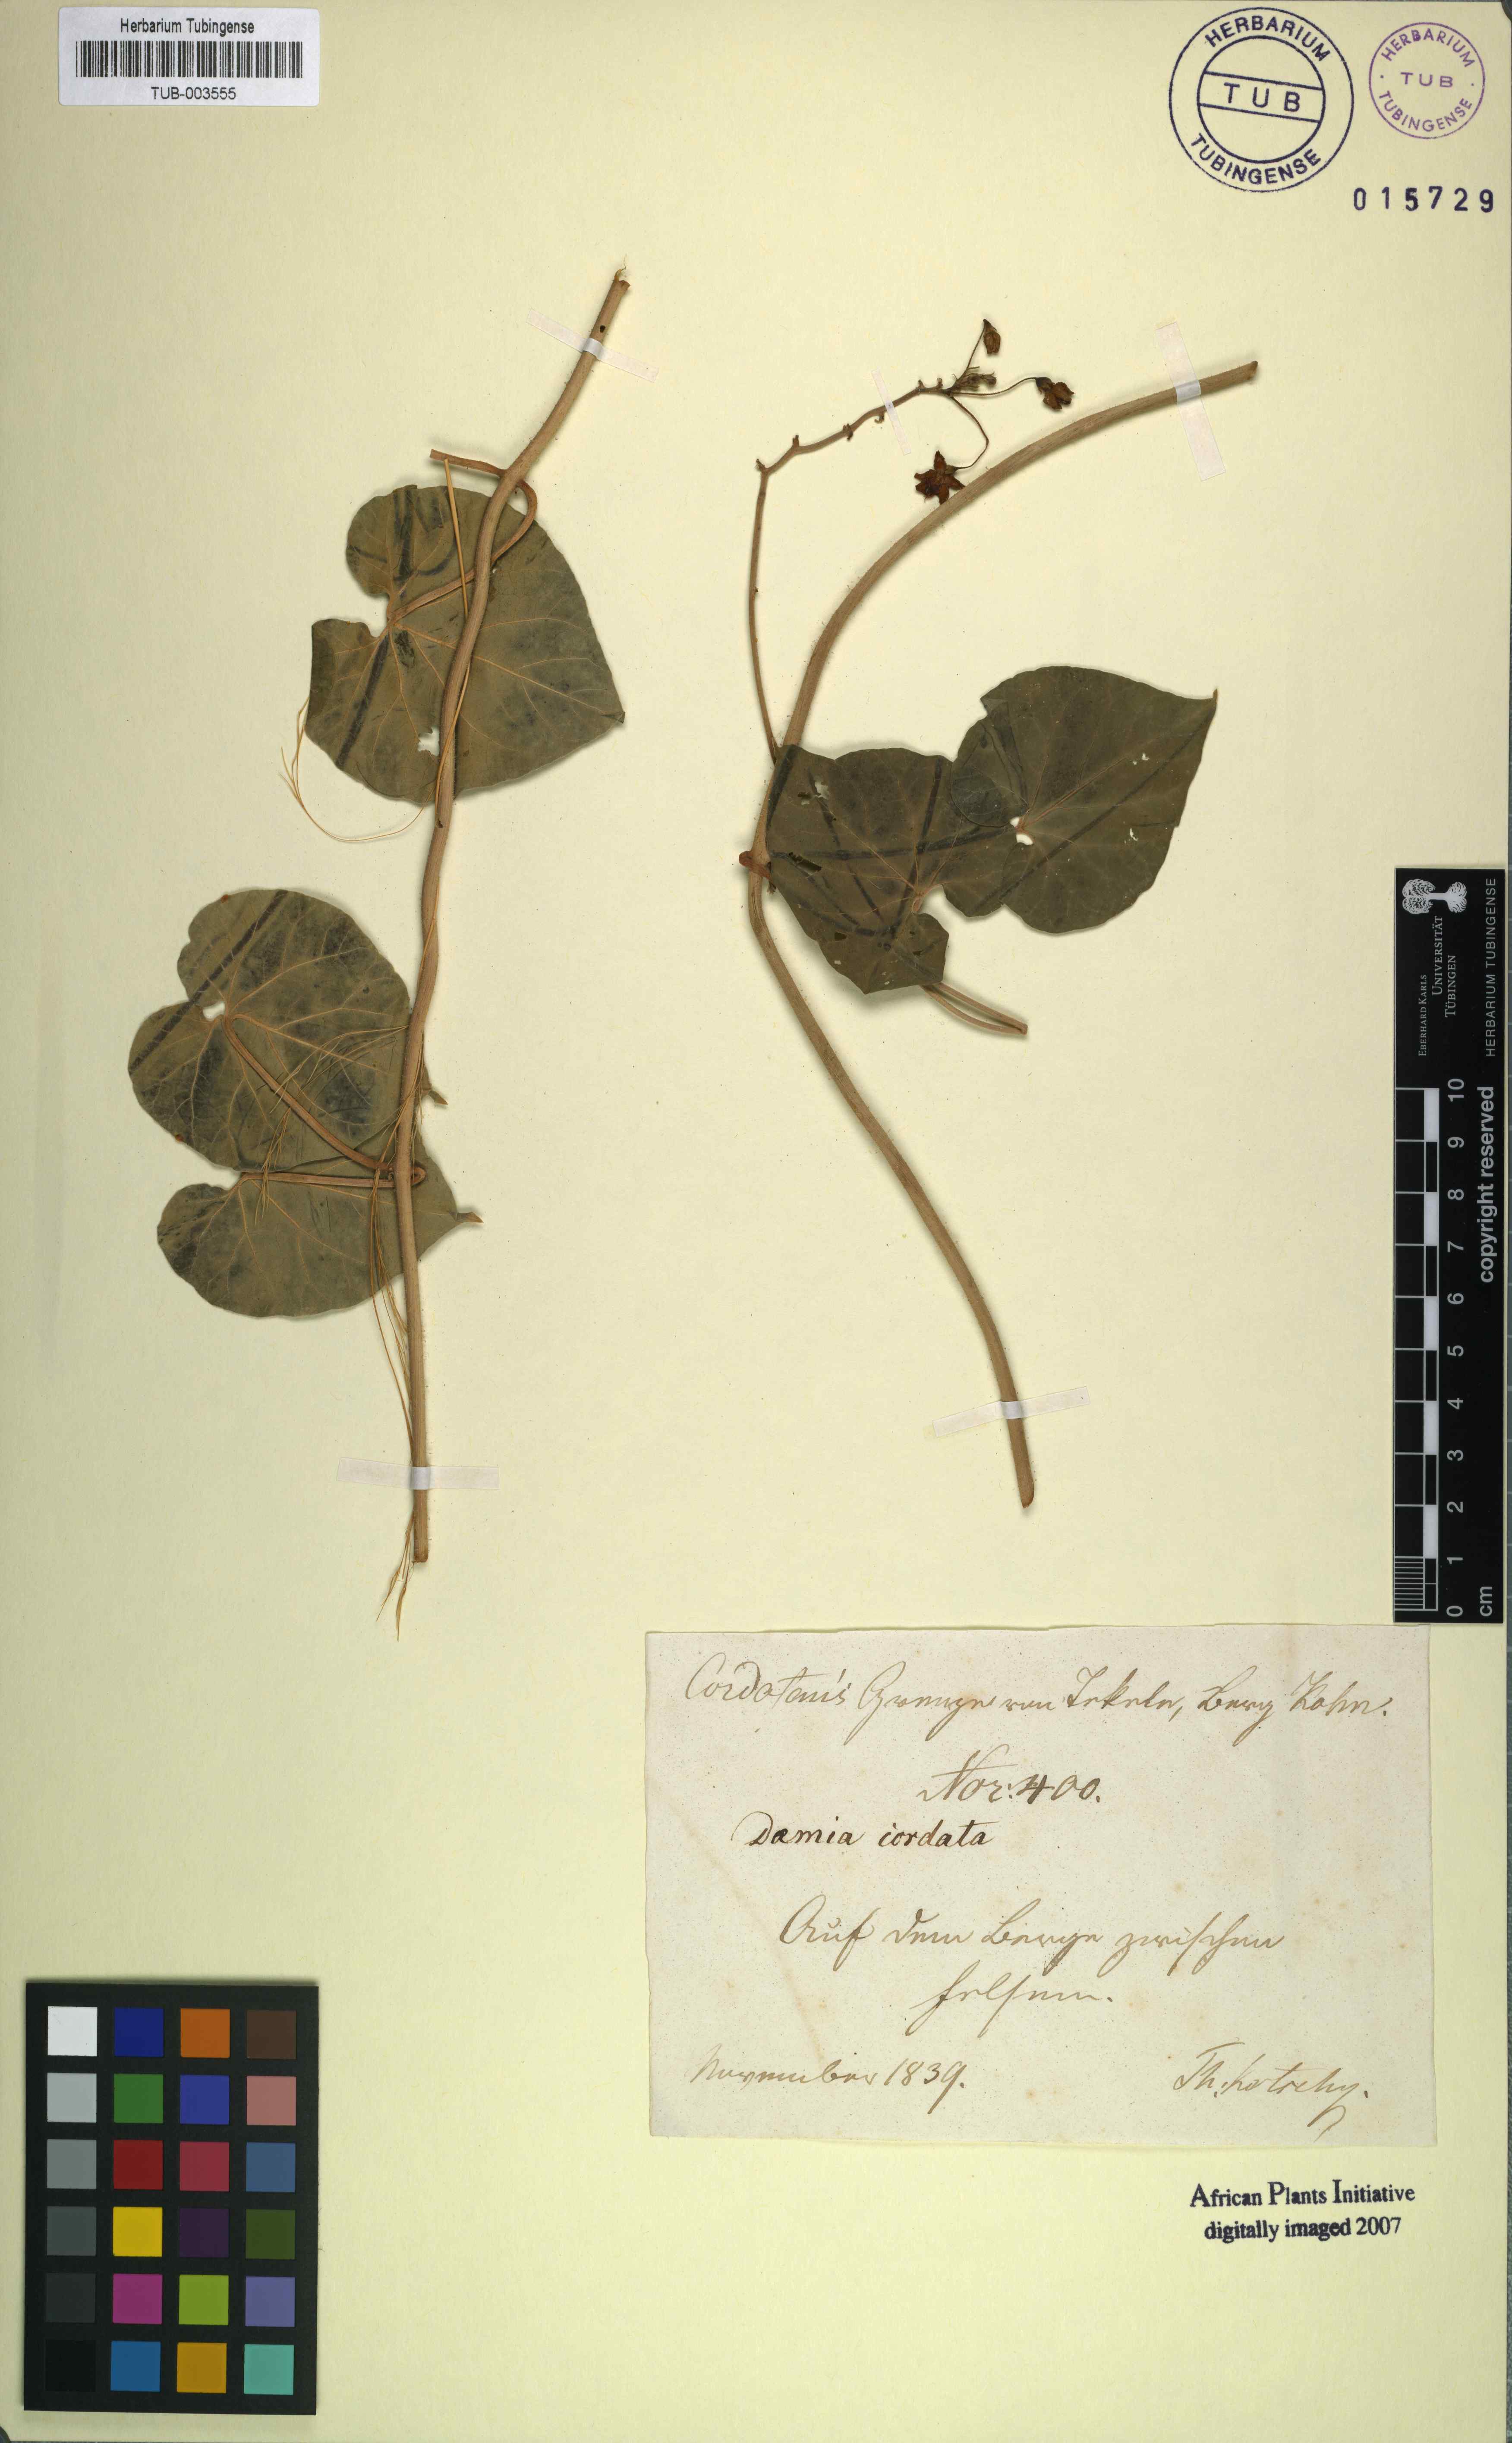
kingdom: Plantae
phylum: Tracheophyta
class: Magnoliopsida
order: Gentianales
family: Apocynaceae
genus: Pergularia
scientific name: Pergularia tomentosa
